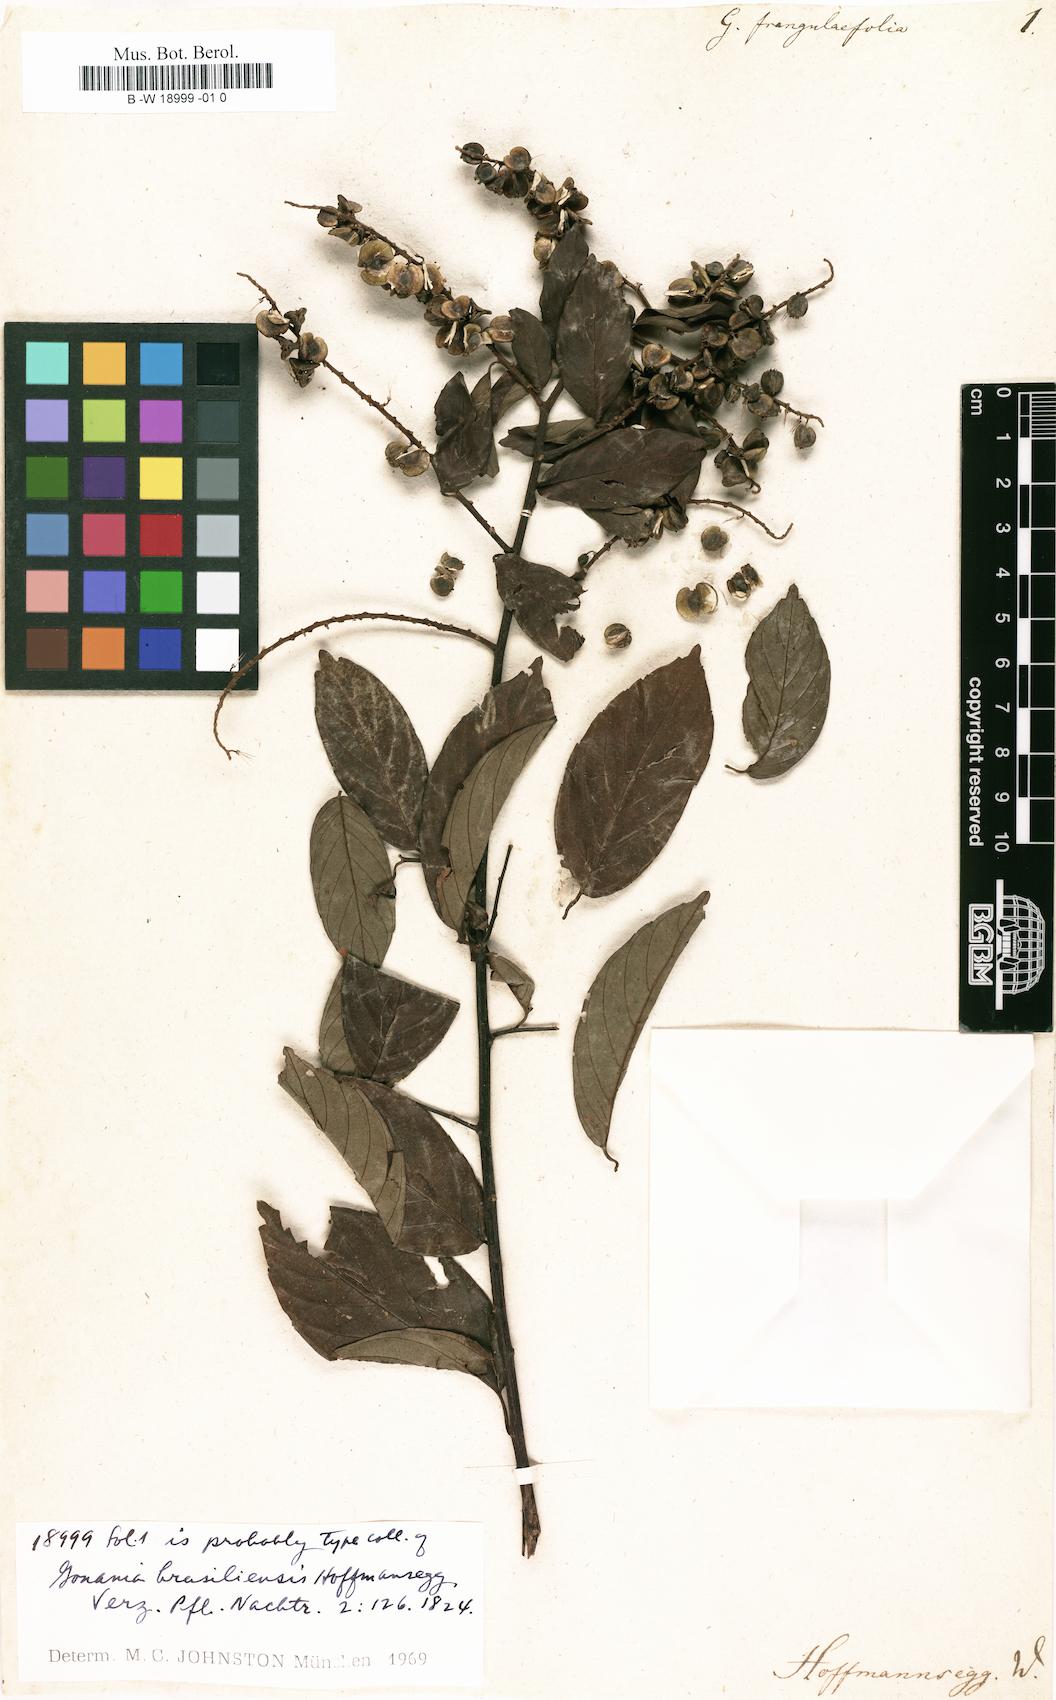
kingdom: Plantae
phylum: Tracheophyta
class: Magnoliopsida
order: Rosales
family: Rhamnaceae
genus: Gouania
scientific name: Gouania frangulifolia
